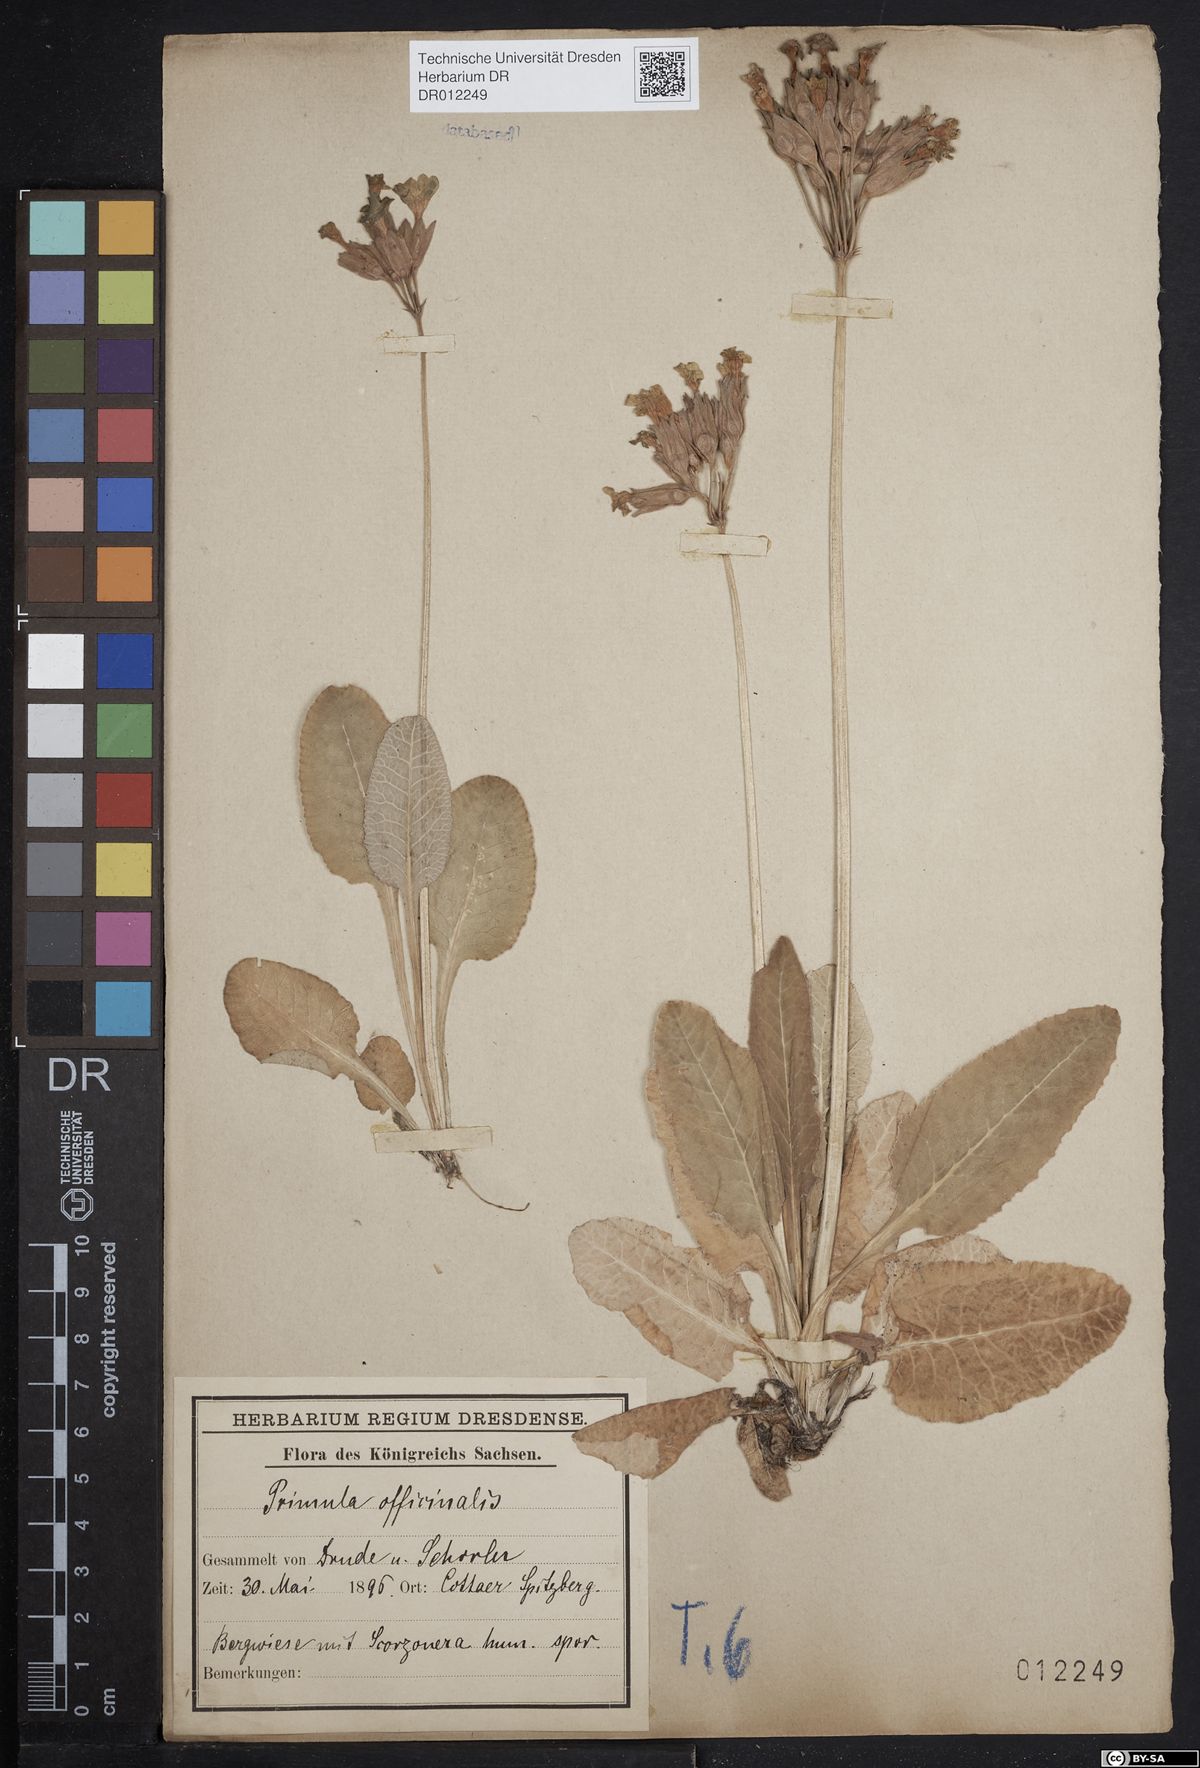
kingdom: Plantae
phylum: Tracheophyta
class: Magnoliopsida
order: Ericales
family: Primulaceae
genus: Primula
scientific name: Primula veris
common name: Cowslip
